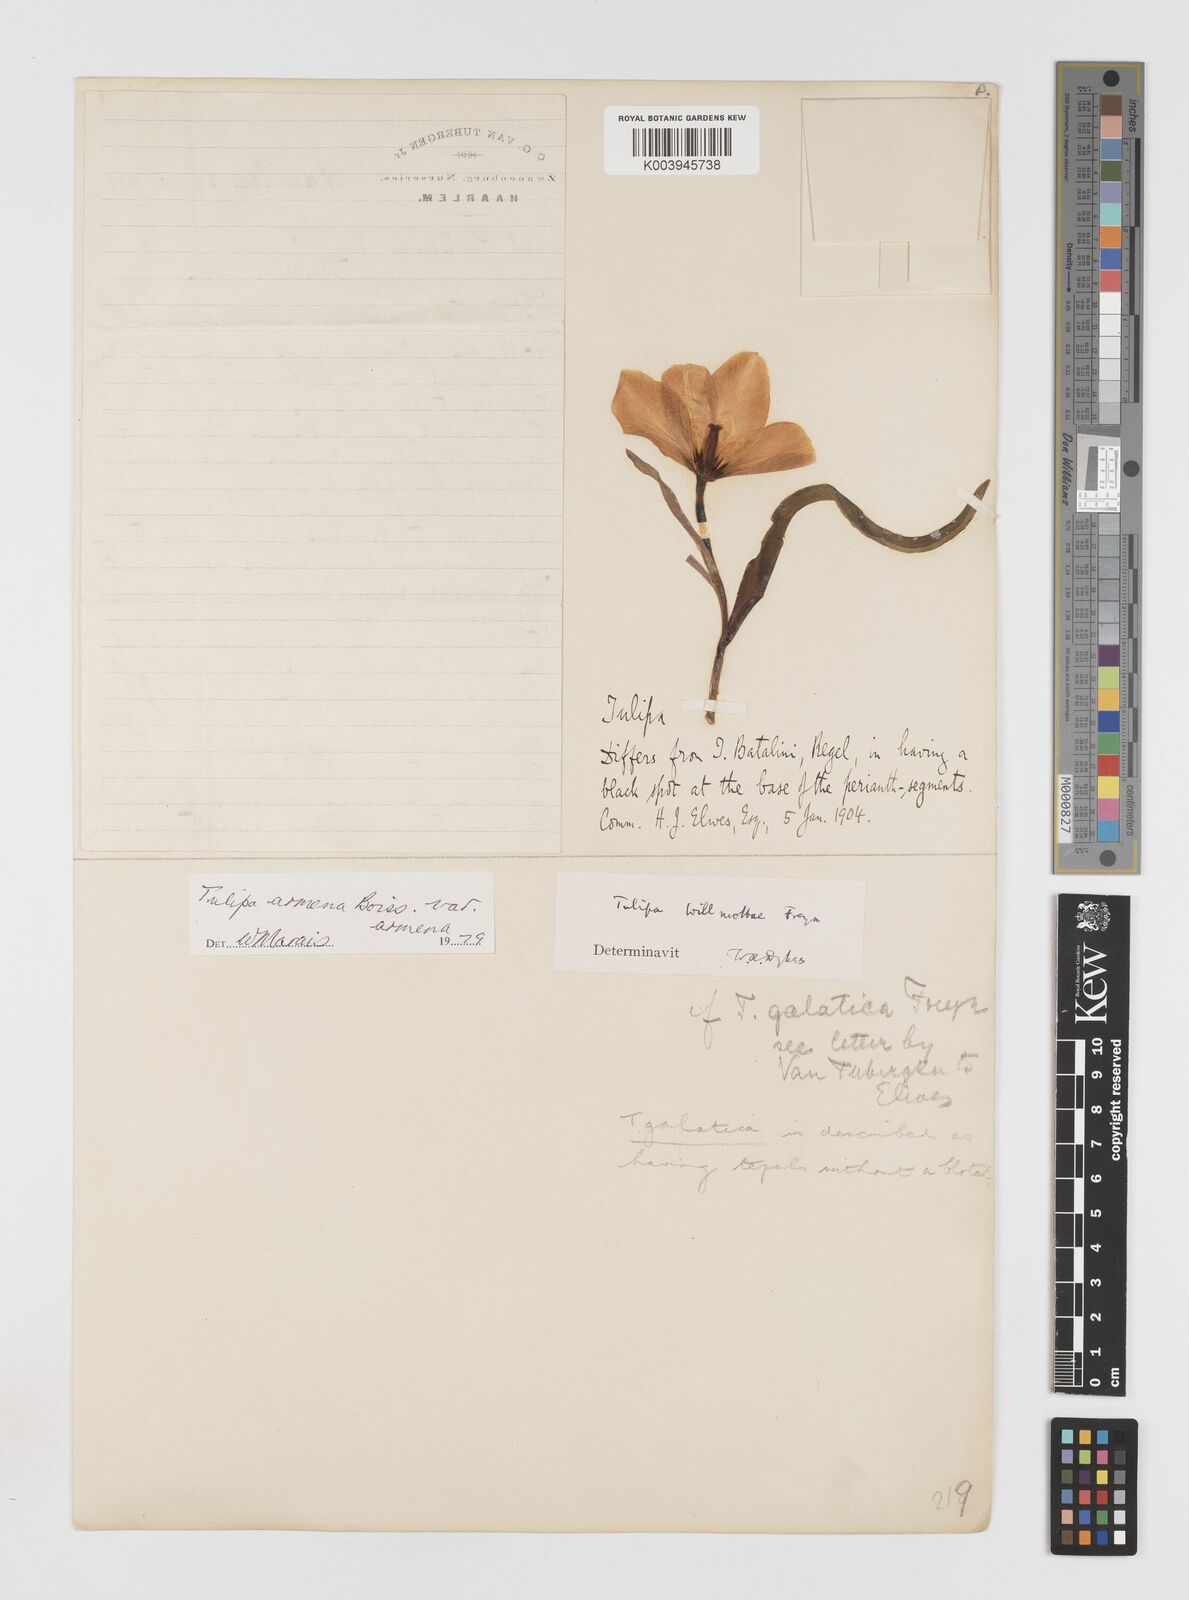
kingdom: Plantae
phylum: Tracheophyta
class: Liliopsida
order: Liliales
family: Liliaceae
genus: Tulipa
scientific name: Tulipa armena
